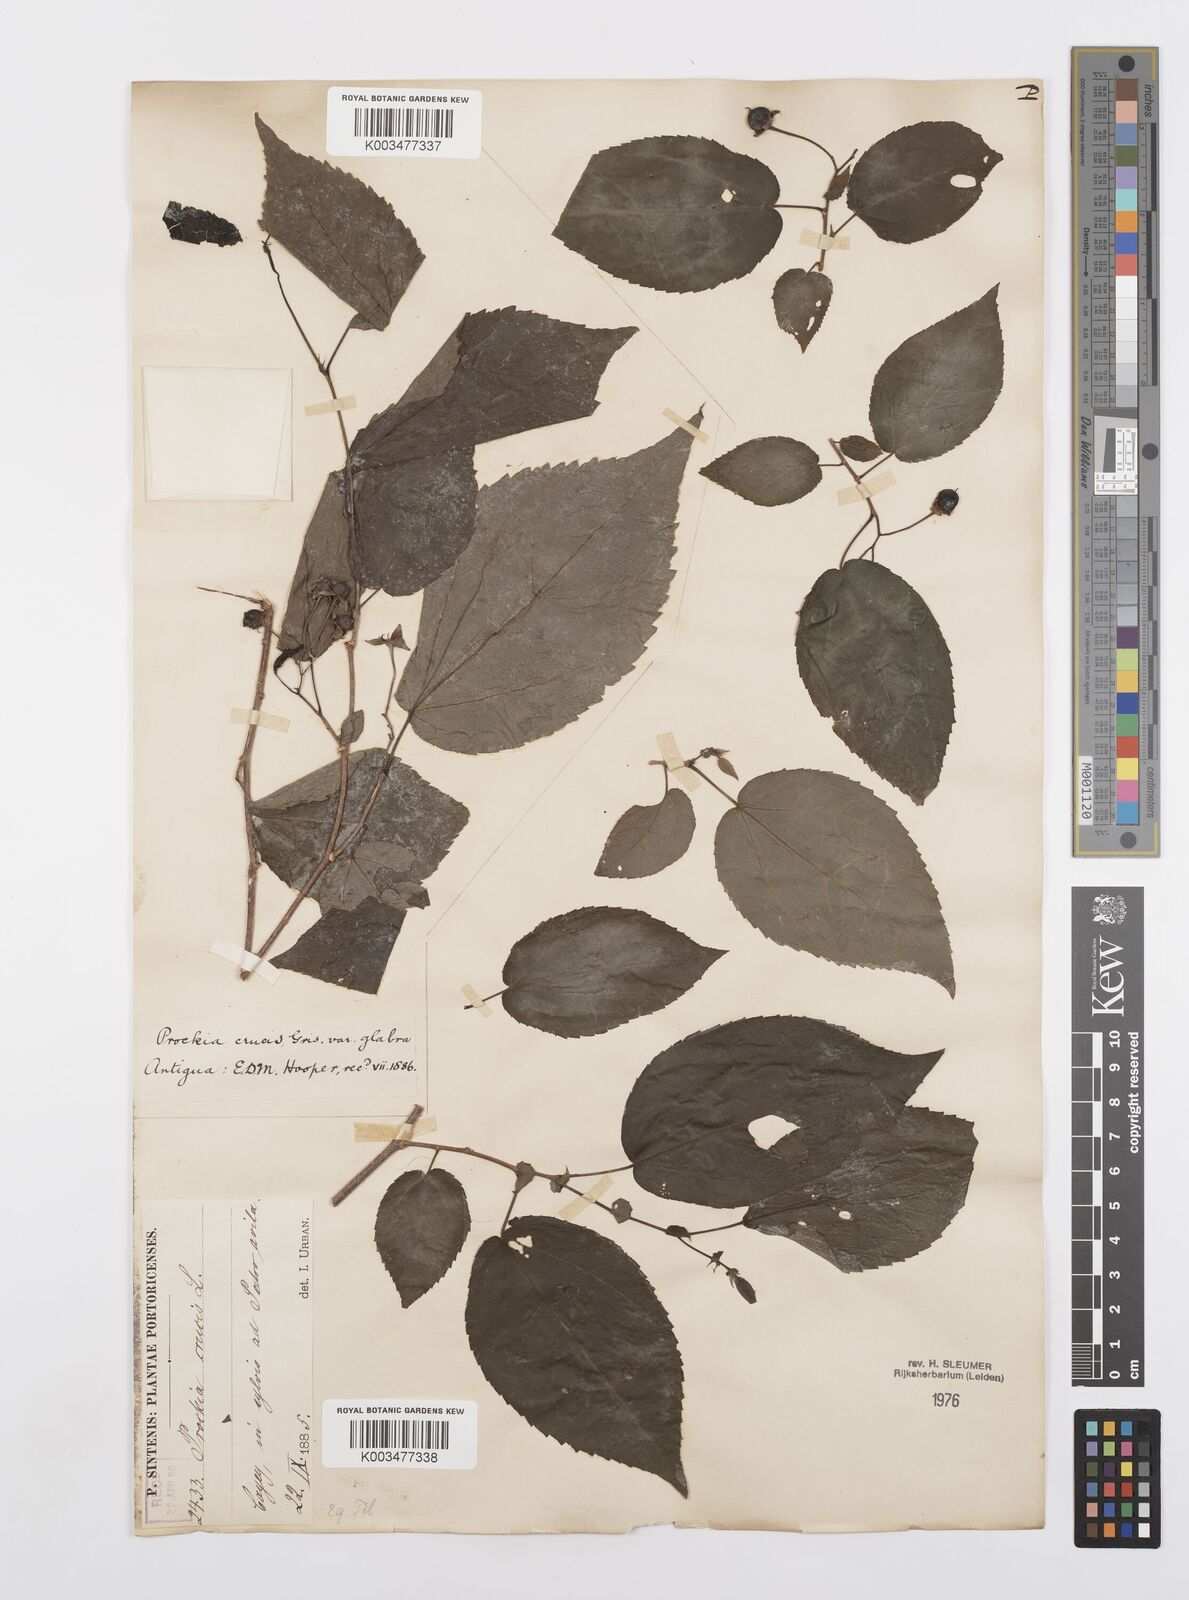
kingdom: Plantae
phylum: Tracheophyta
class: Magnoliopsida
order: Malpighiales
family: Salicaceae
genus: Prockia
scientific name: Prockia crucis
